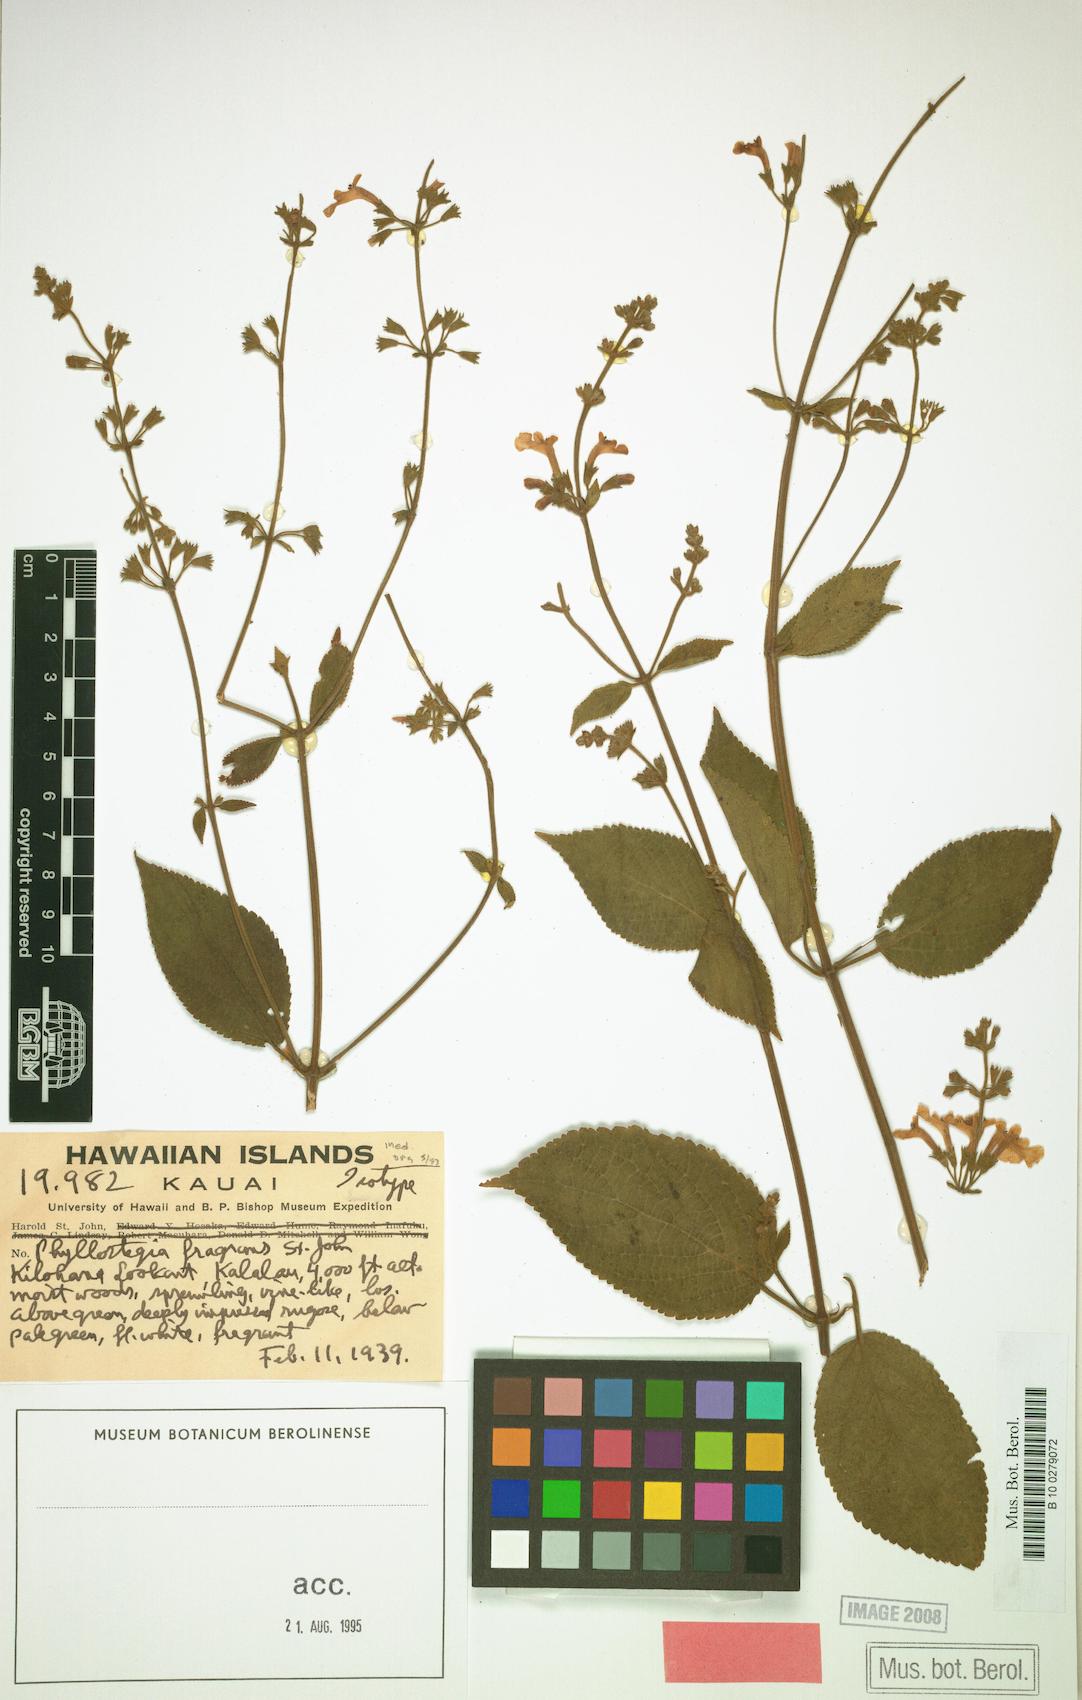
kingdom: Plantae
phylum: Tracheophyta
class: Magnoliopsida
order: Lamiales
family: Lamiaceae
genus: Phyllostegia
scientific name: Phyllostegia
